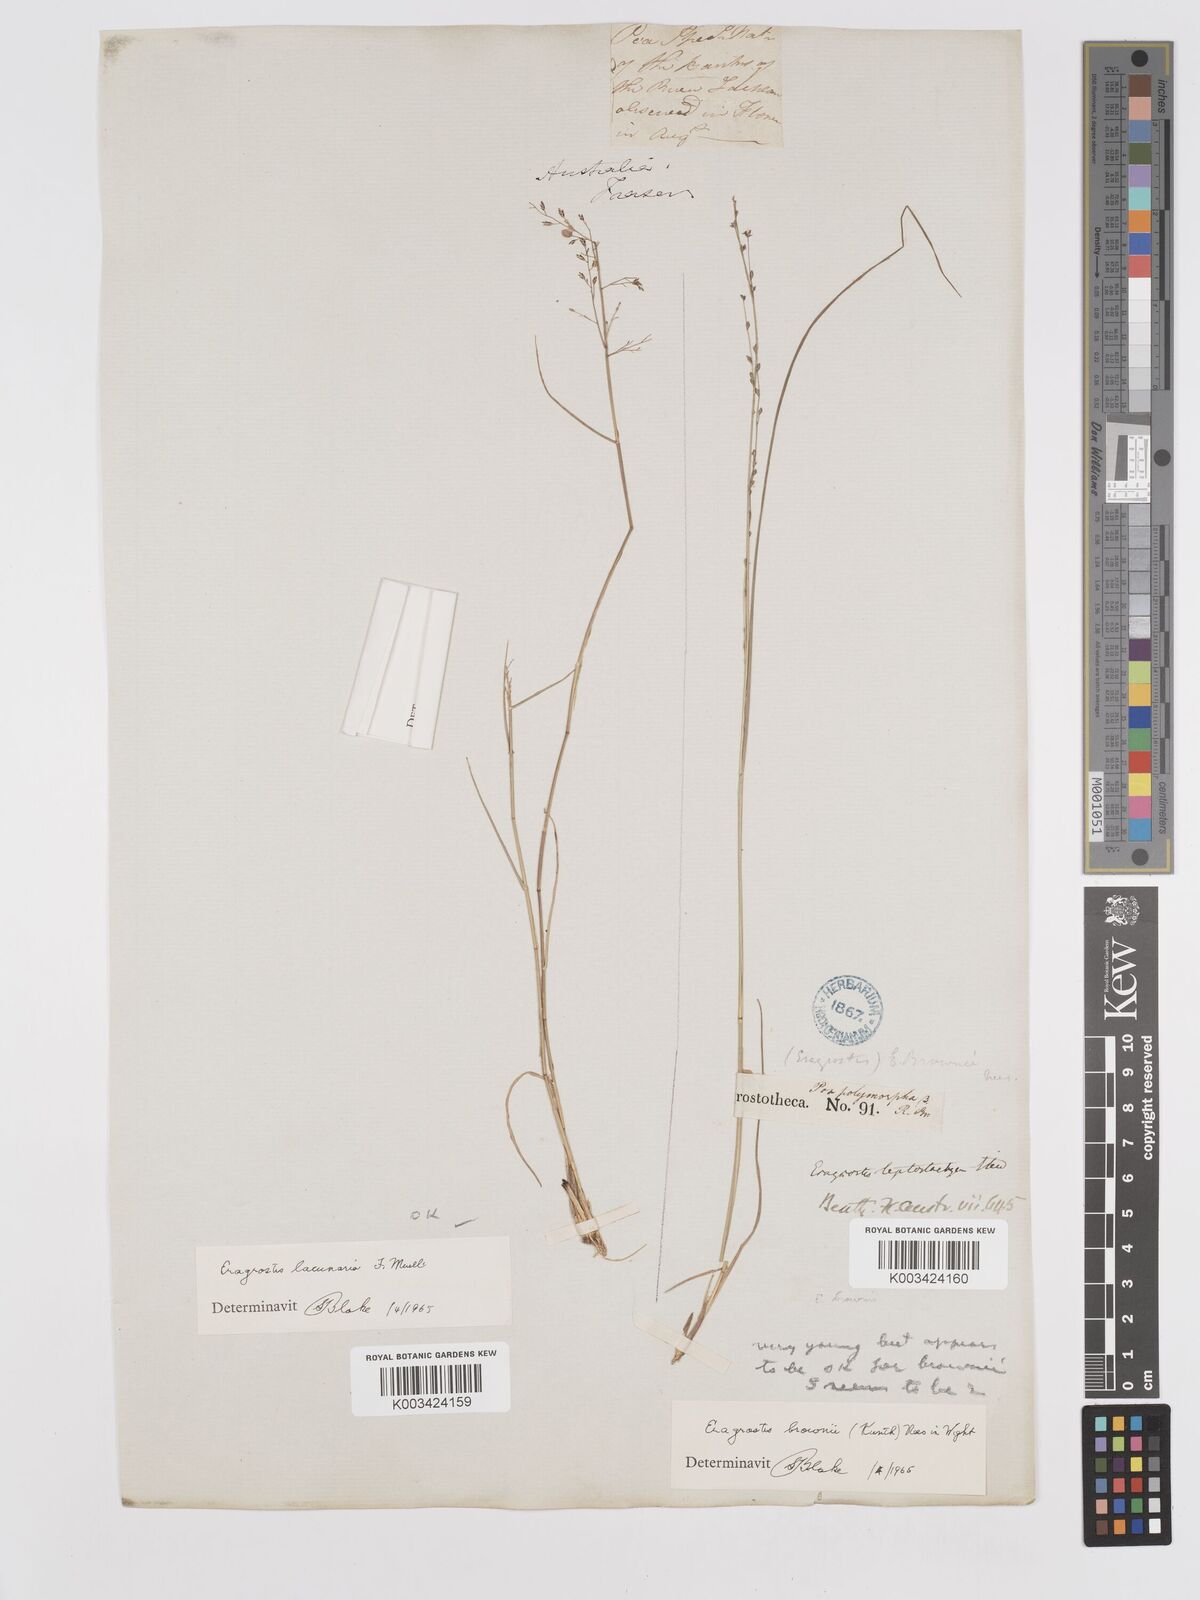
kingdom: Plantae
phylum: Tracheophyta
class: Liliopsida
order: Poales
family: Poaceae
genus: Eragrostis
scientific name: Eragrostis brownii
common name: Lovegrass
